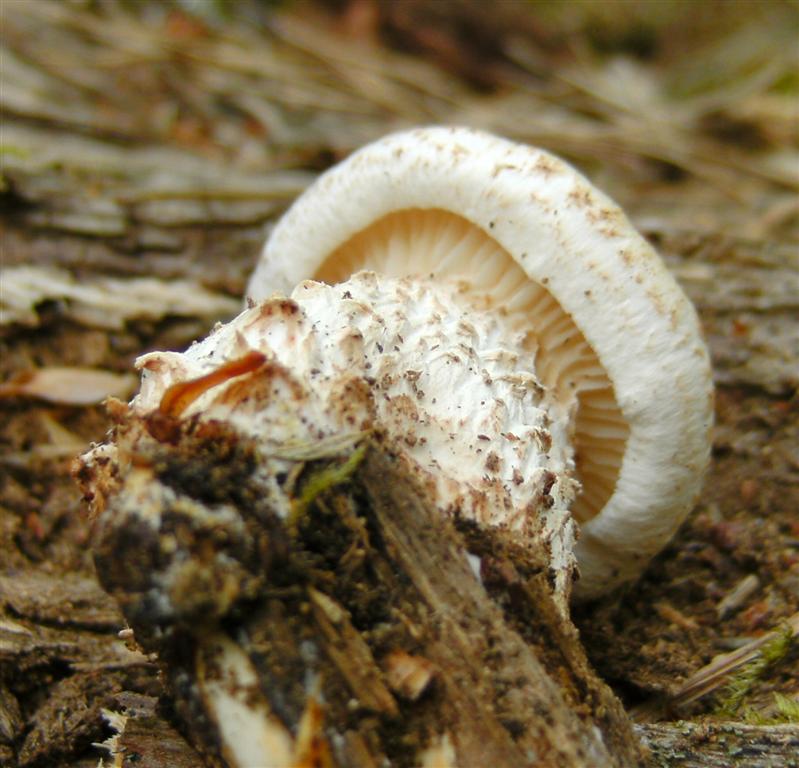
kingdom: Fungi
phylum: Basidiomycota
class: Agaricomycetes
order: Gloeophyllales
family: Gloeophyllaceae
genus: Neolentinus
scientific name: Neolentinus lepideus
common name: skællet sejhat
